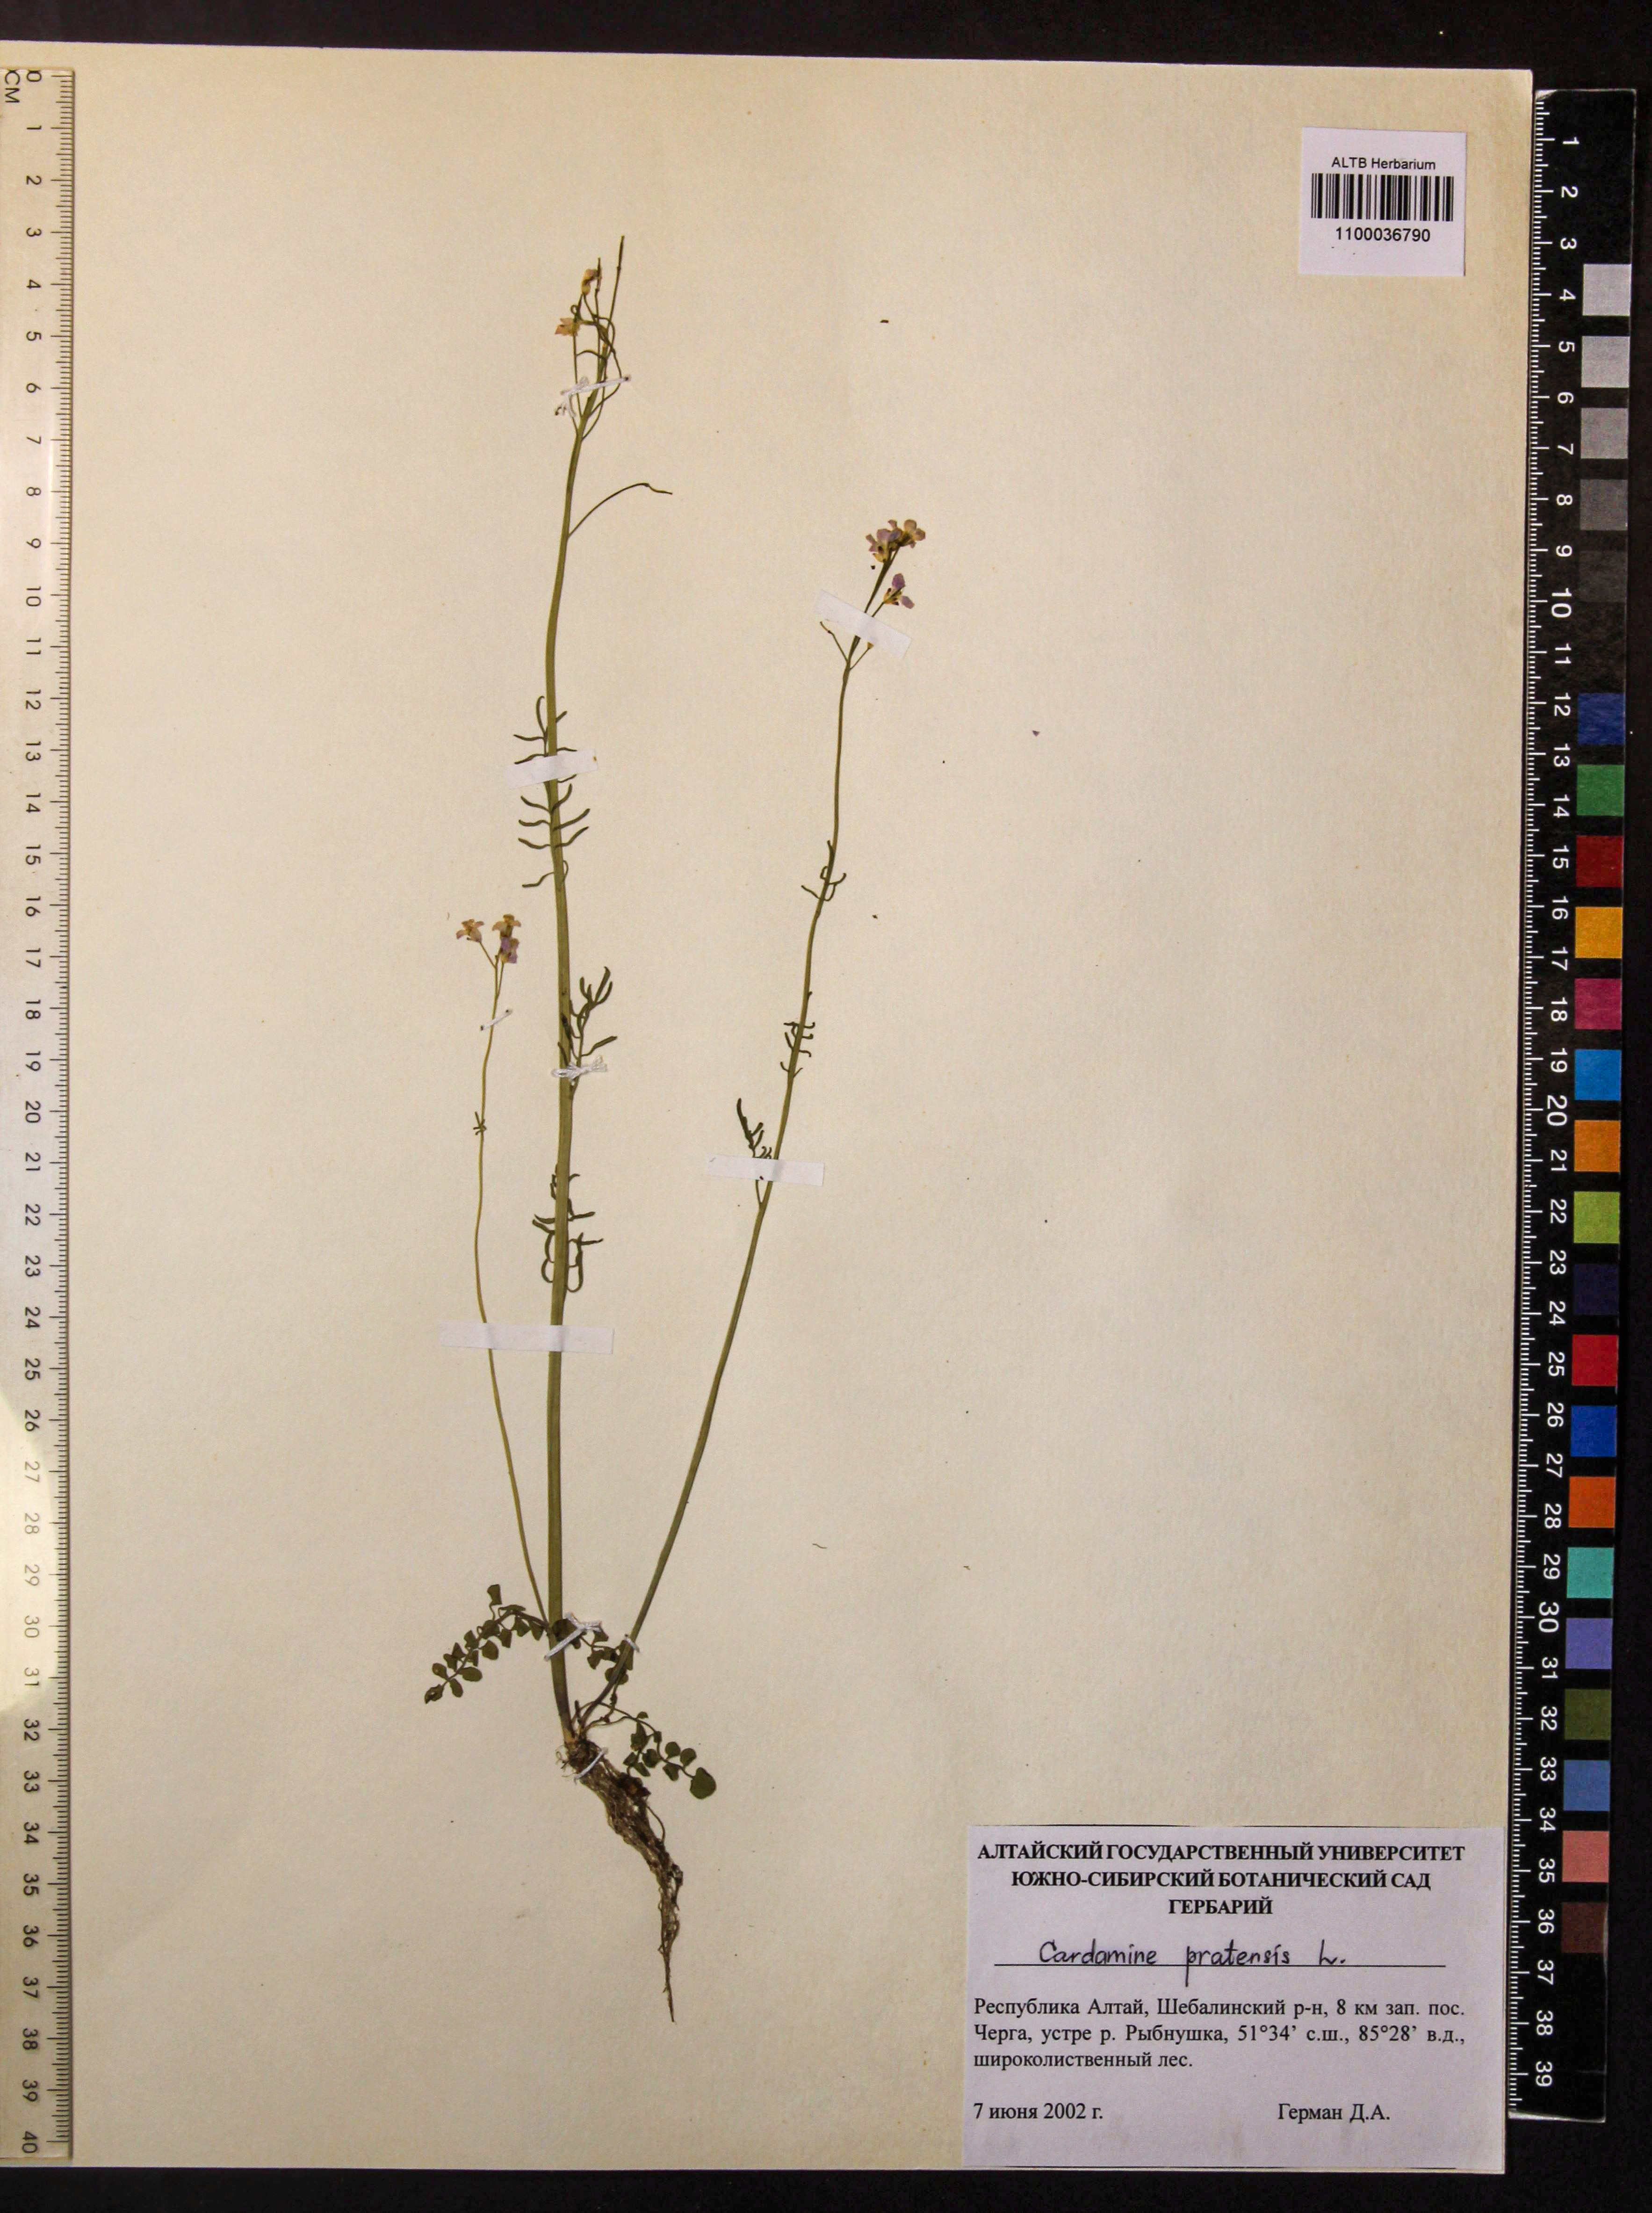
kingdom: Plantae
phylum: Tracheophyta
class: Magnoliopsida
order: Brassicales
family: Brassicaceae
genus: Cardamine
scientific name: Cardamine pratensis
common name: Cuckoo flower
